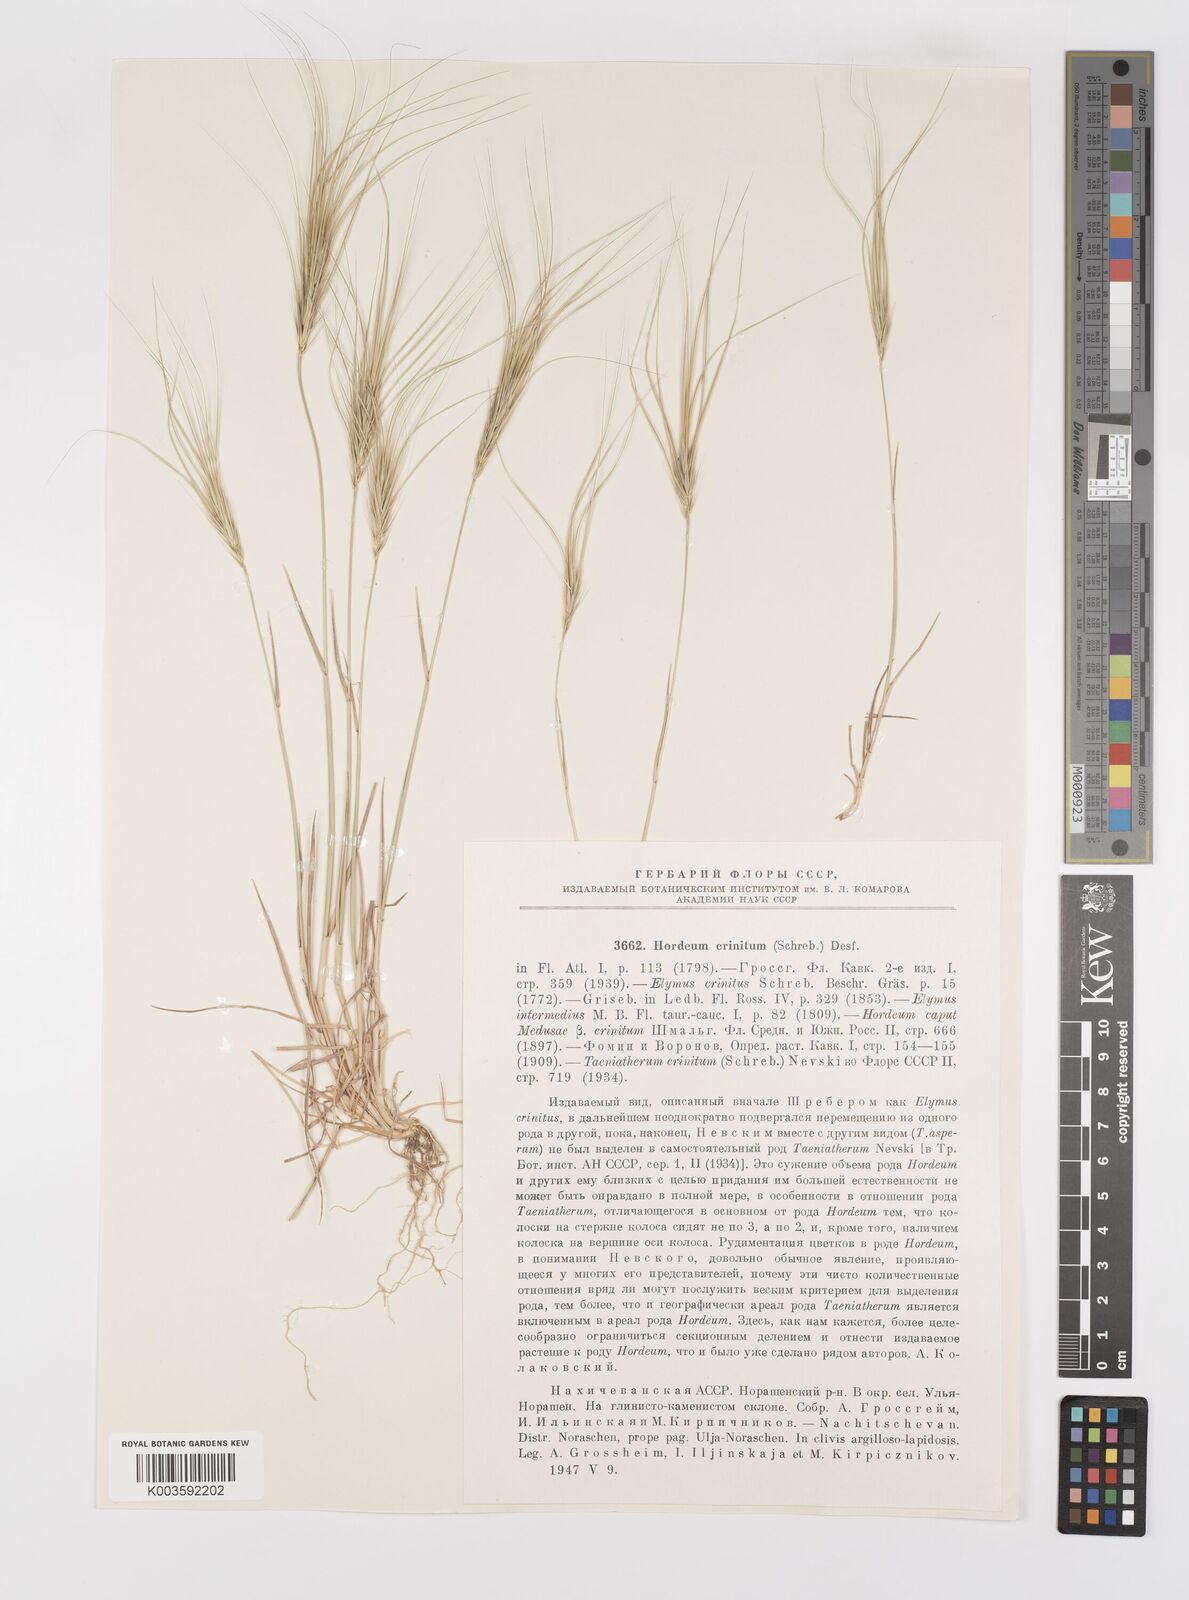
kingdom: Plantae
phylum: Tracheophyta
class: Liliopsida
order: Poales
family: Poaceae
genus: Taeniatherum
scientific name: Taeniatherum caput-medusae
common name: Medusahead
